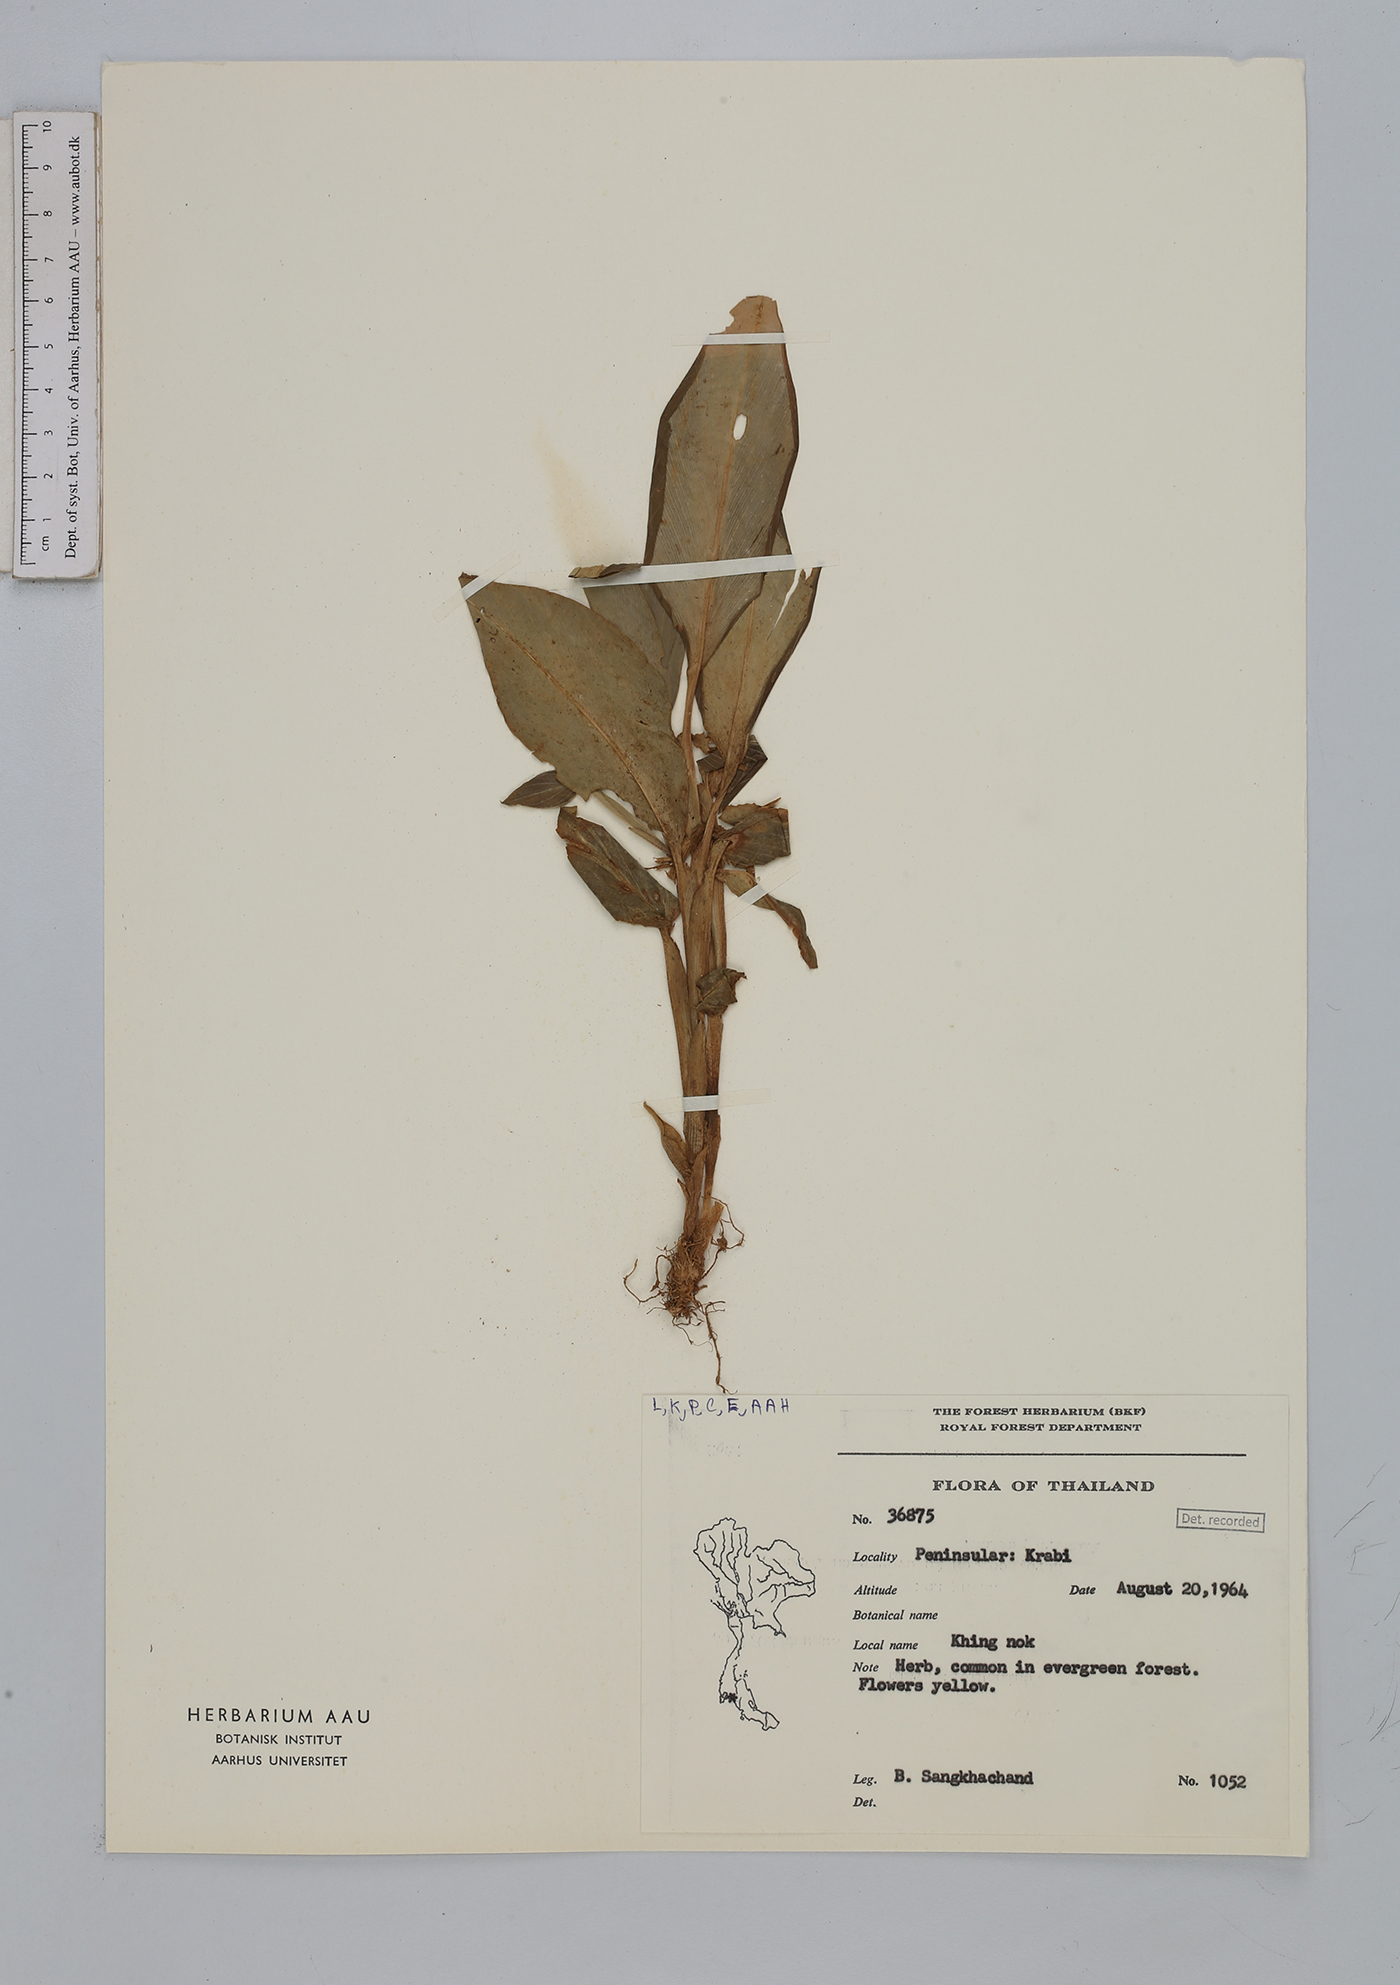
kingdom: Plantae
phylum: Tracheophyta
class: Liliopsida
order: Zingiberales
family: Zingiberaceae
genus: Boesenbergia
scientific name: Boesenbergia
